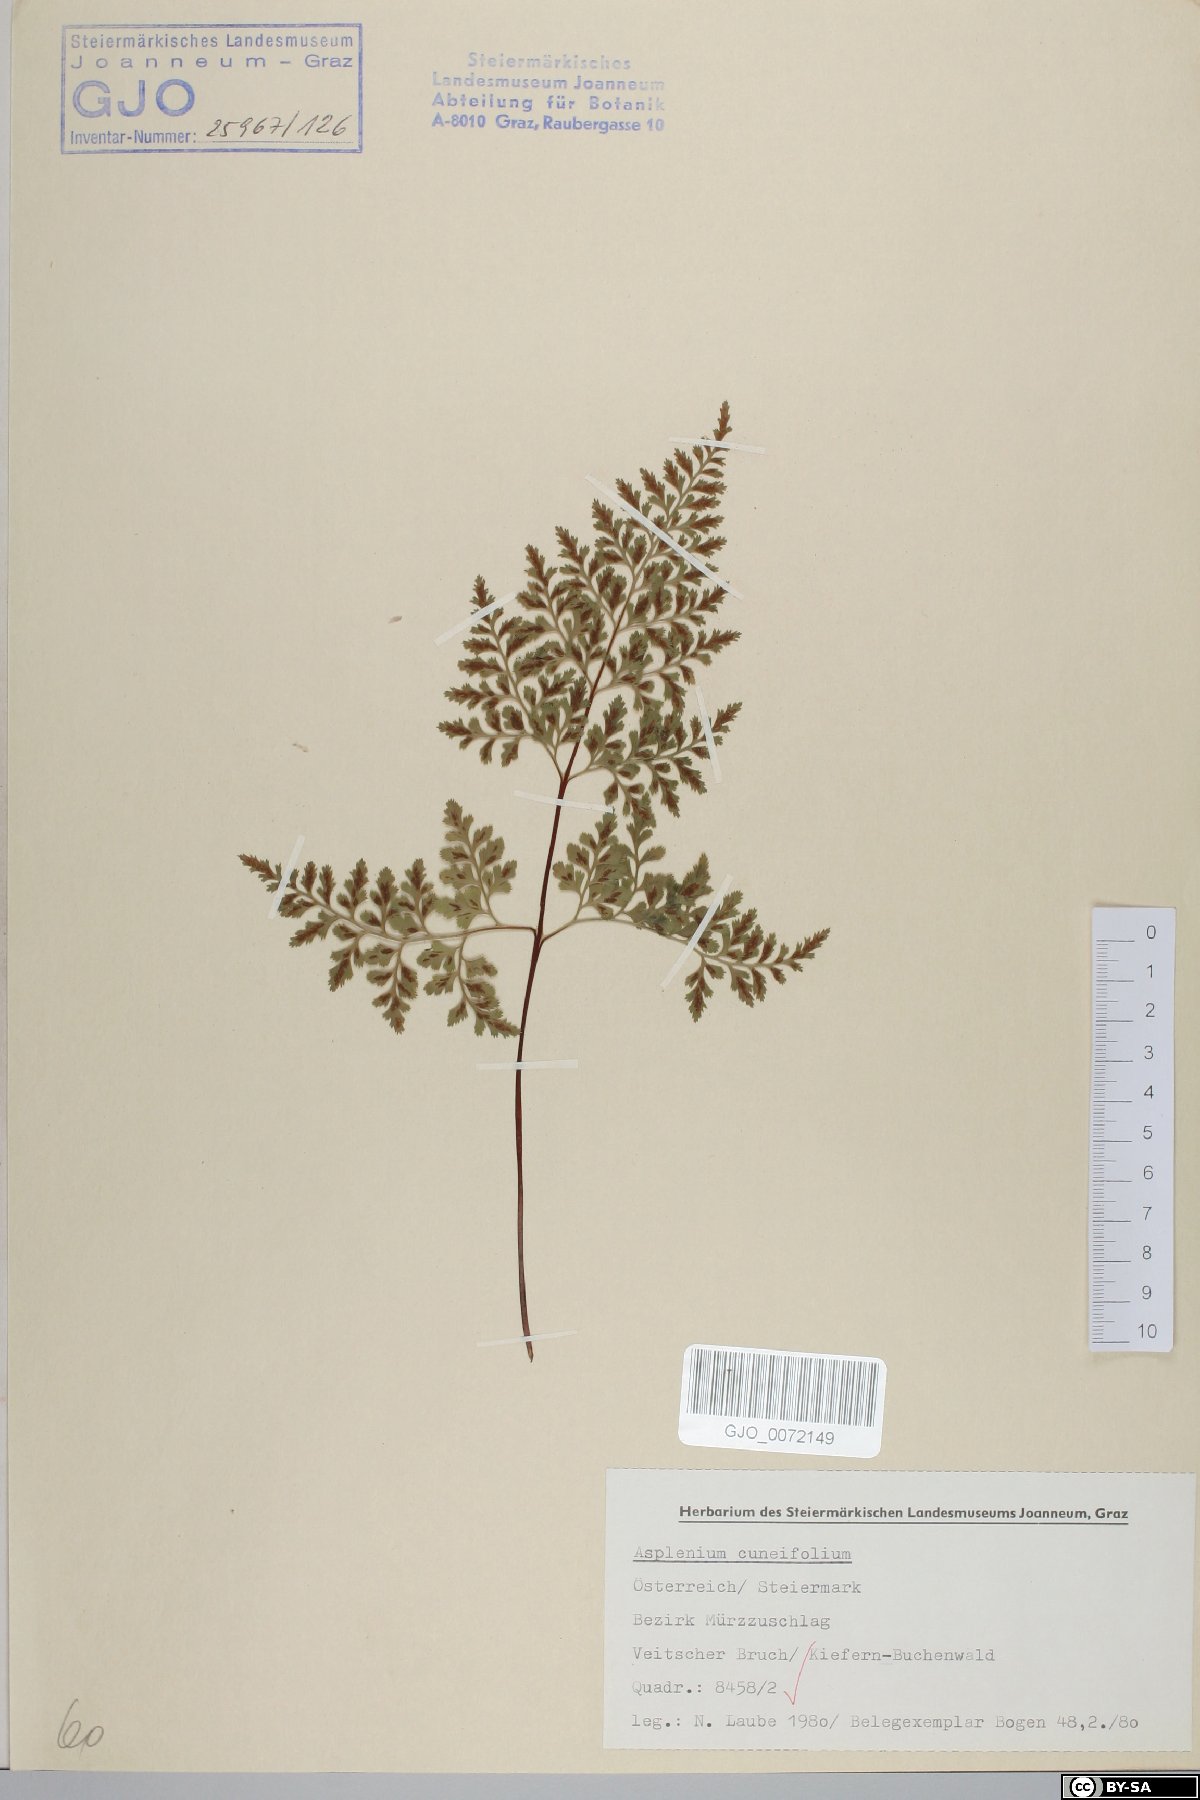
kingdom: Plantae
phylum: Tracheophyta
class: Polypodiopsida
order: Polypodiales
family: Aspleniaceae
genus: Asplenium
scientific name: Asplenium cuneifolium
